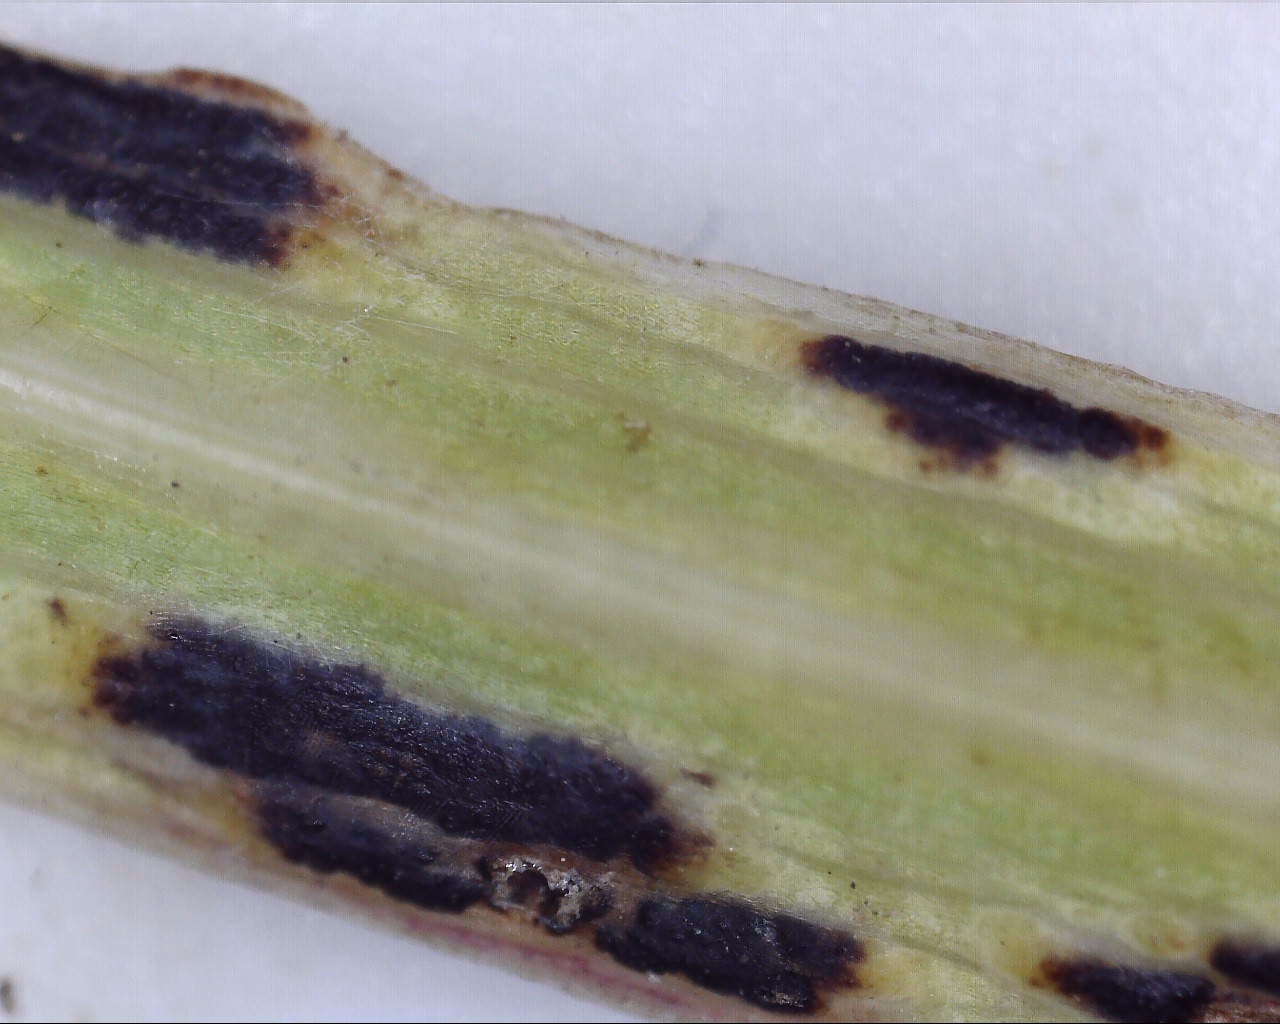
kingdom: Fungi
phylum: Basidiomycota
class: Pucciniomycetes
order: Pucciniales
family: Pucciniaceae
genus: Peristemma
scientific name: Peristemma pseudosphaeria
